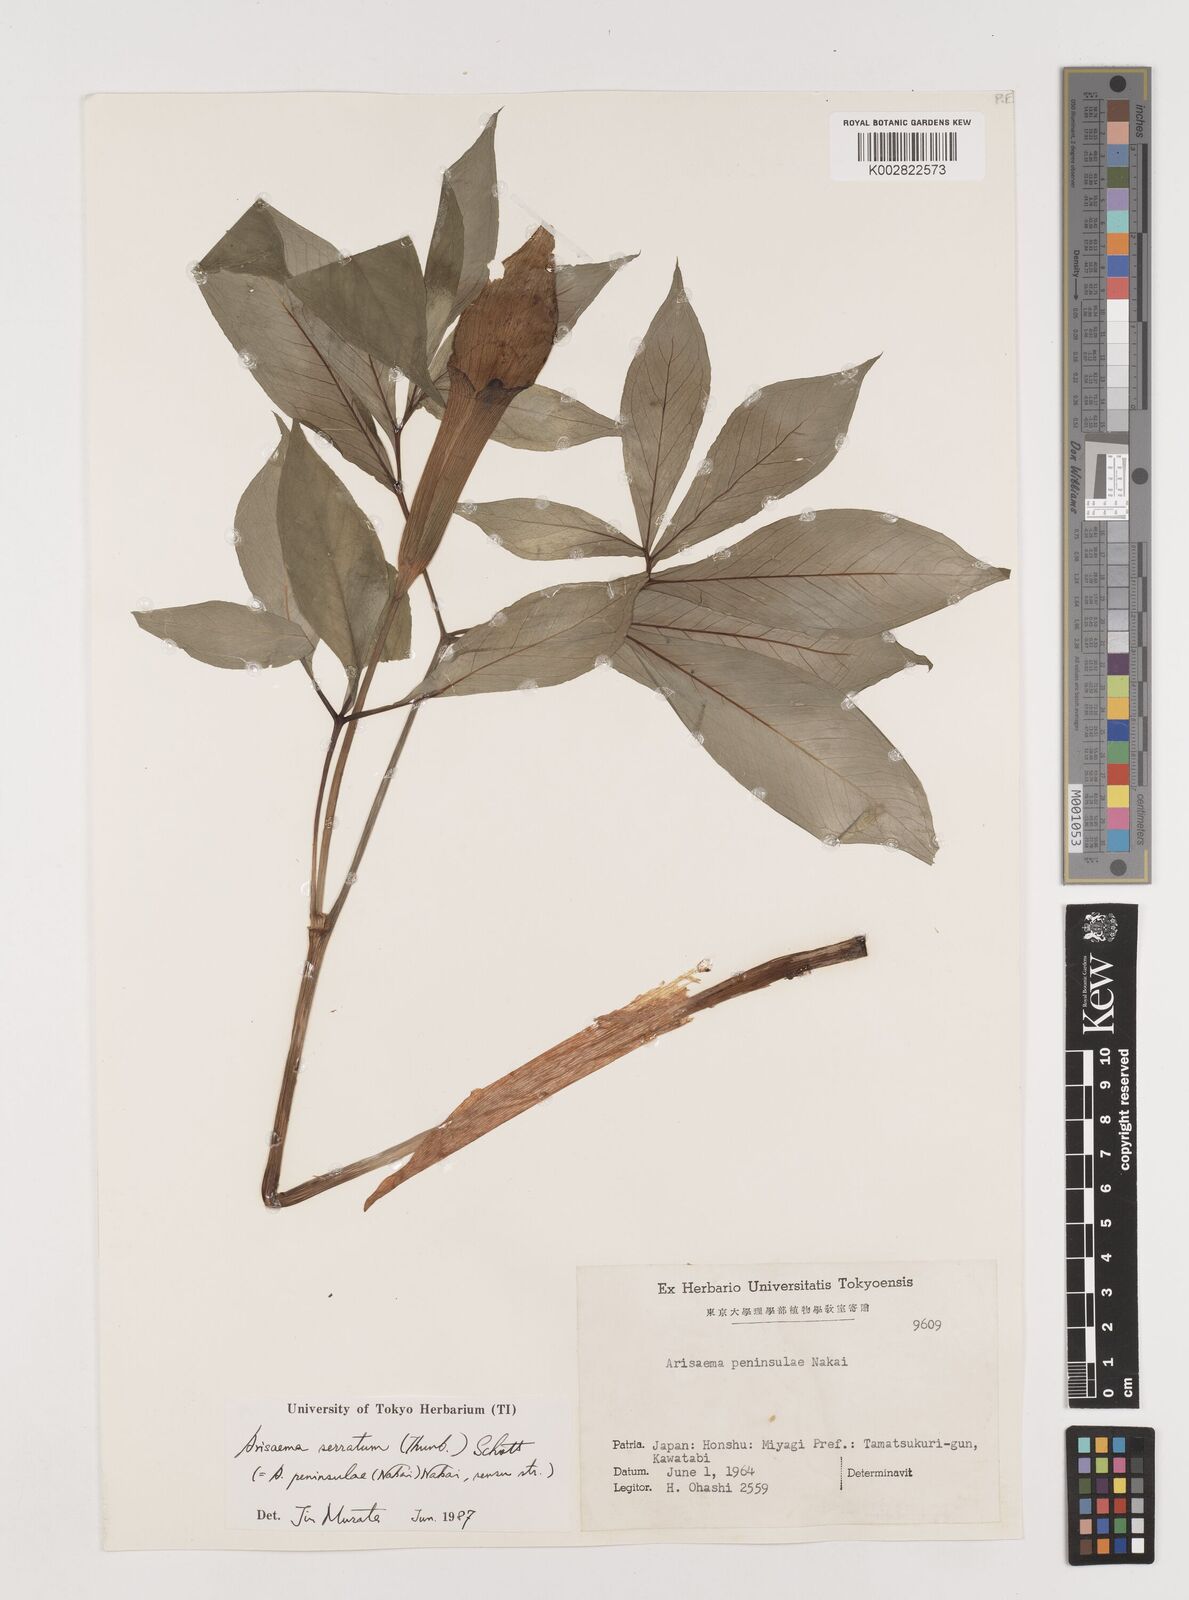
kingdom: Plantae
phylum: Tracheophyta
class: Liliopsida
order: Alismatales
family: Araceae
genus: Arisaema
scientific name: Arisaema serratum
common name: Japanese arisaema
